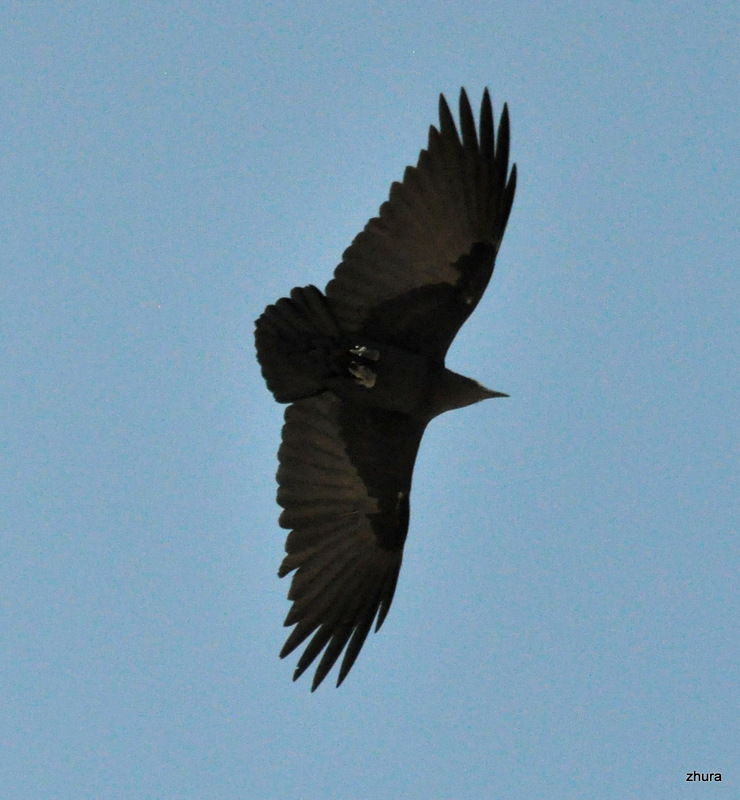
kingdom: Animalia
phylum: Chordata
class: Aves
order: Passeriformes
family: Corvidae
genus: Corvus
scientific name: Corvus rhipidurus
